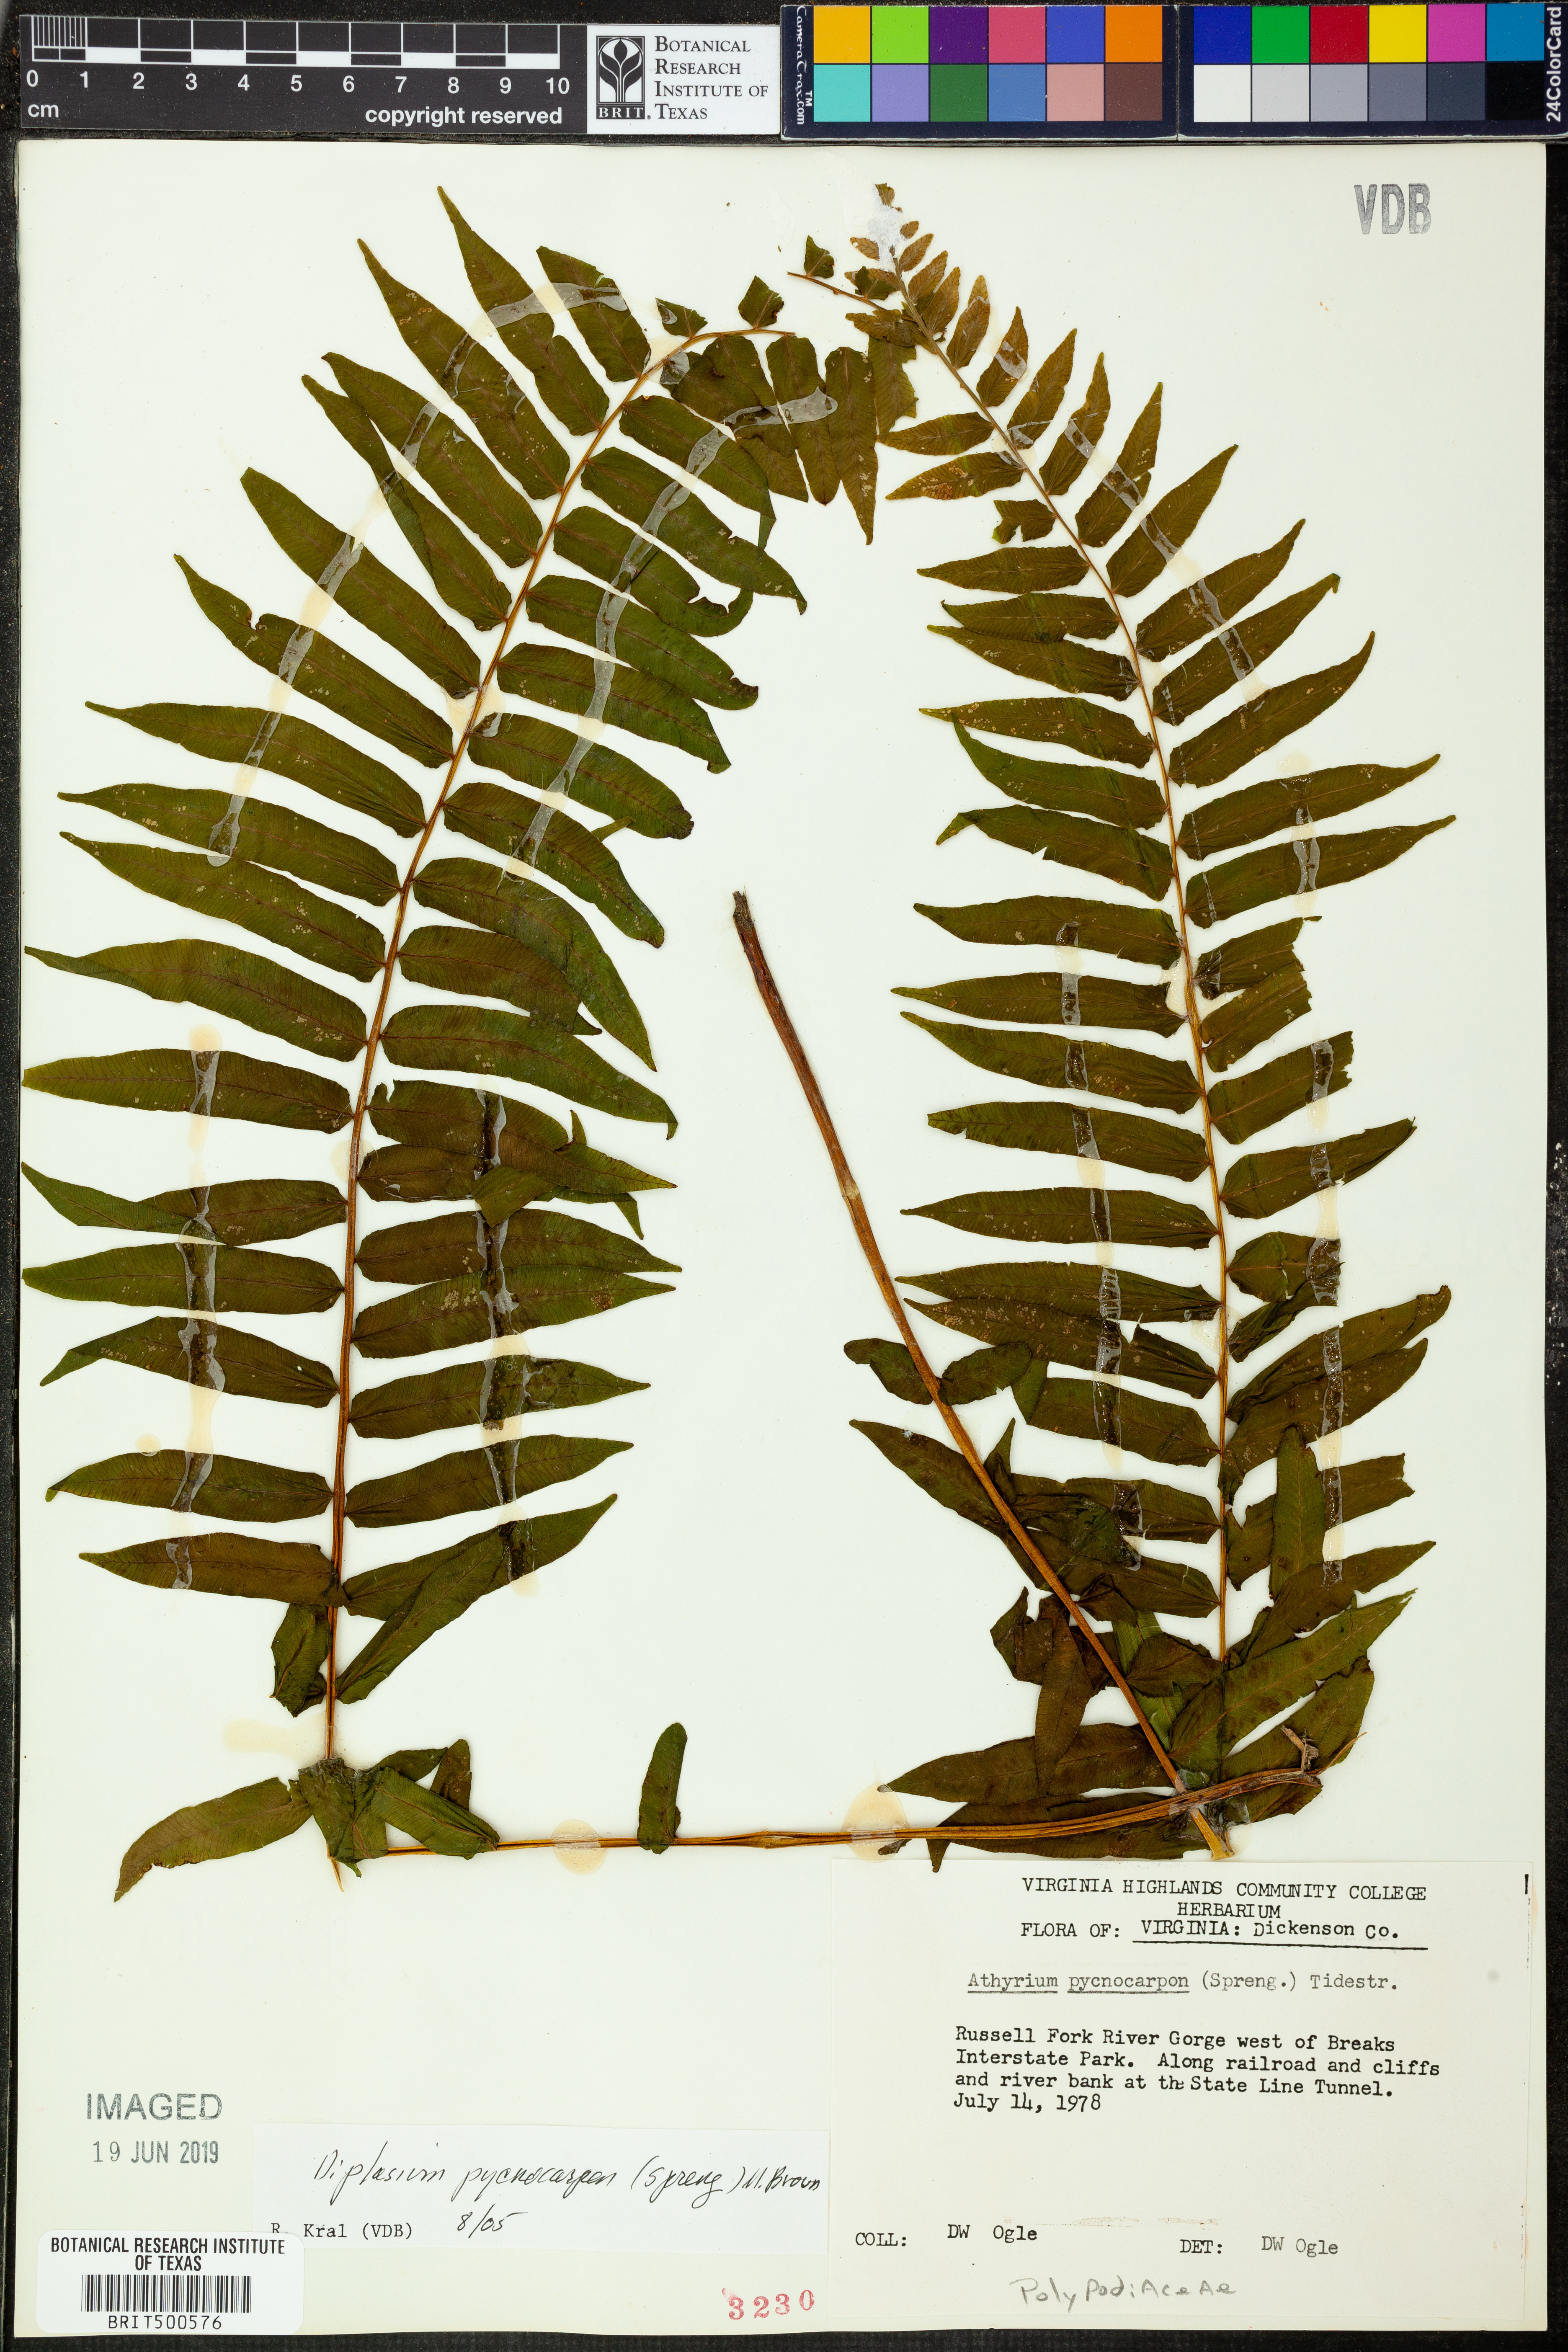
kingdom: Plantae
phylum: Tracheophyta
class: Polypodiopsida
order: Polypodiales
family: Diplaziopsidaceae
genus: Homalosorus
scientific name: Homalosorus pycnocarpos
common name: Glade fern
